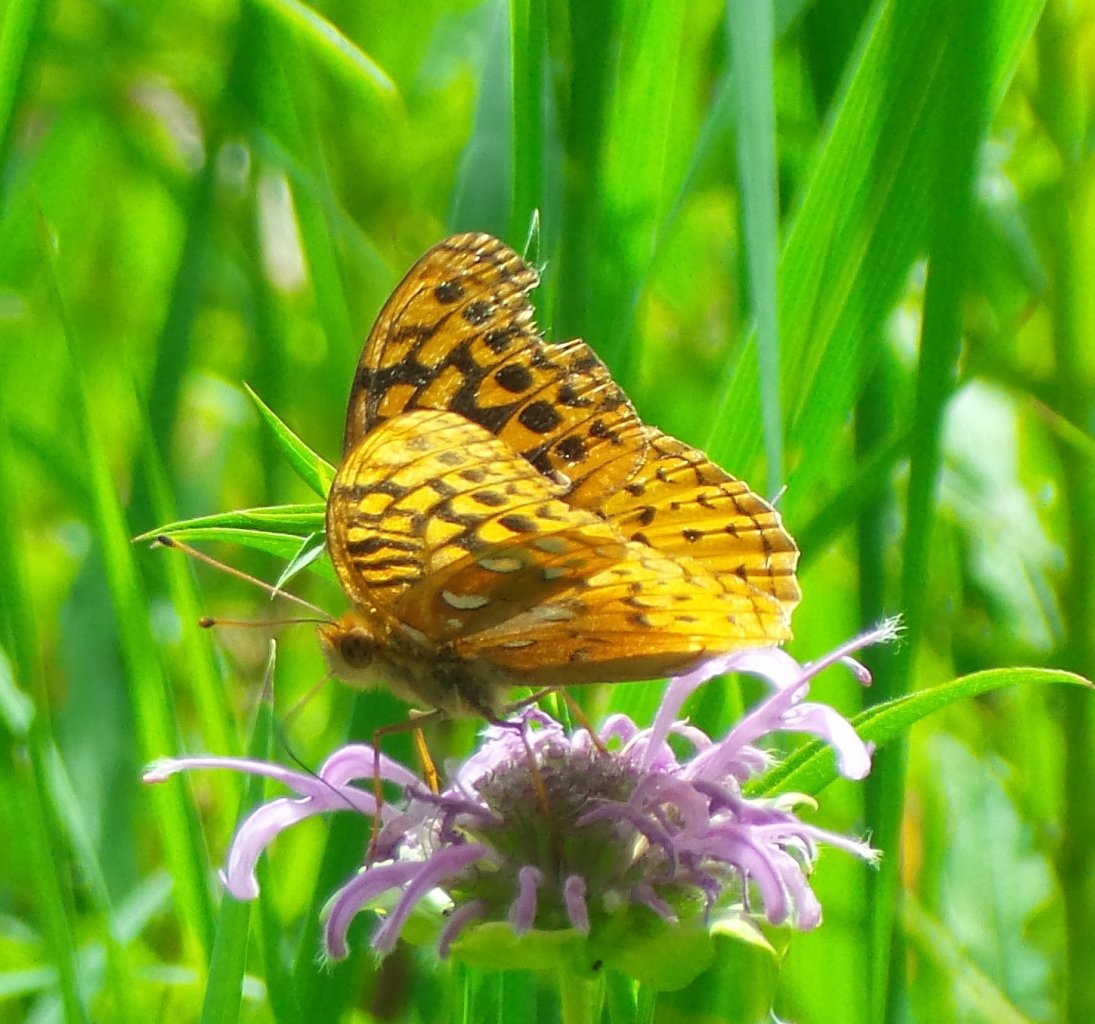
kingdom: Animalia
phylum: Arthropoda
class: Insecta
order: Lepidoptera
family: Nymphalidae
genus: Speyeria
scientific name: Speyeria cybele
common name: Great Spangled Fritillary
